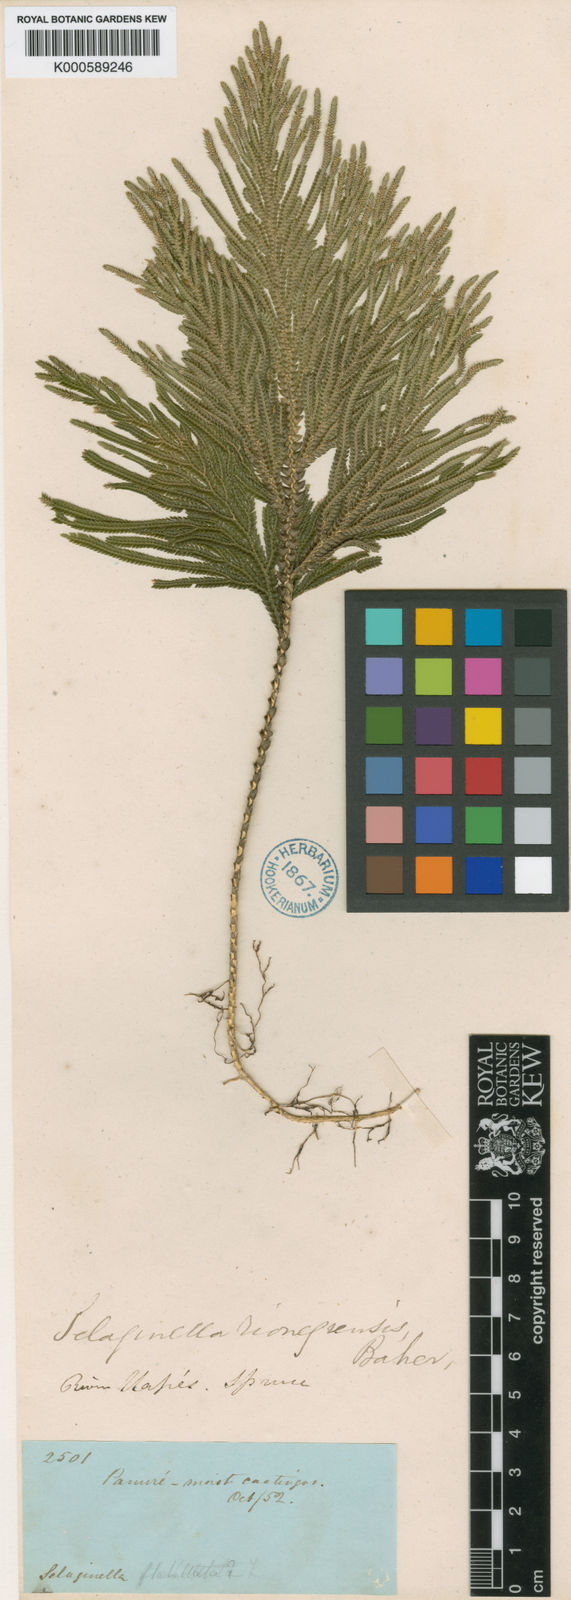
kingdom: Plantae
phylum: Tracheophyta
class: Lycopodiopsida
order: Selaginellales
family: Selaginellaceae
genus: Selaginella
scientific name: Selaginella amazonica
